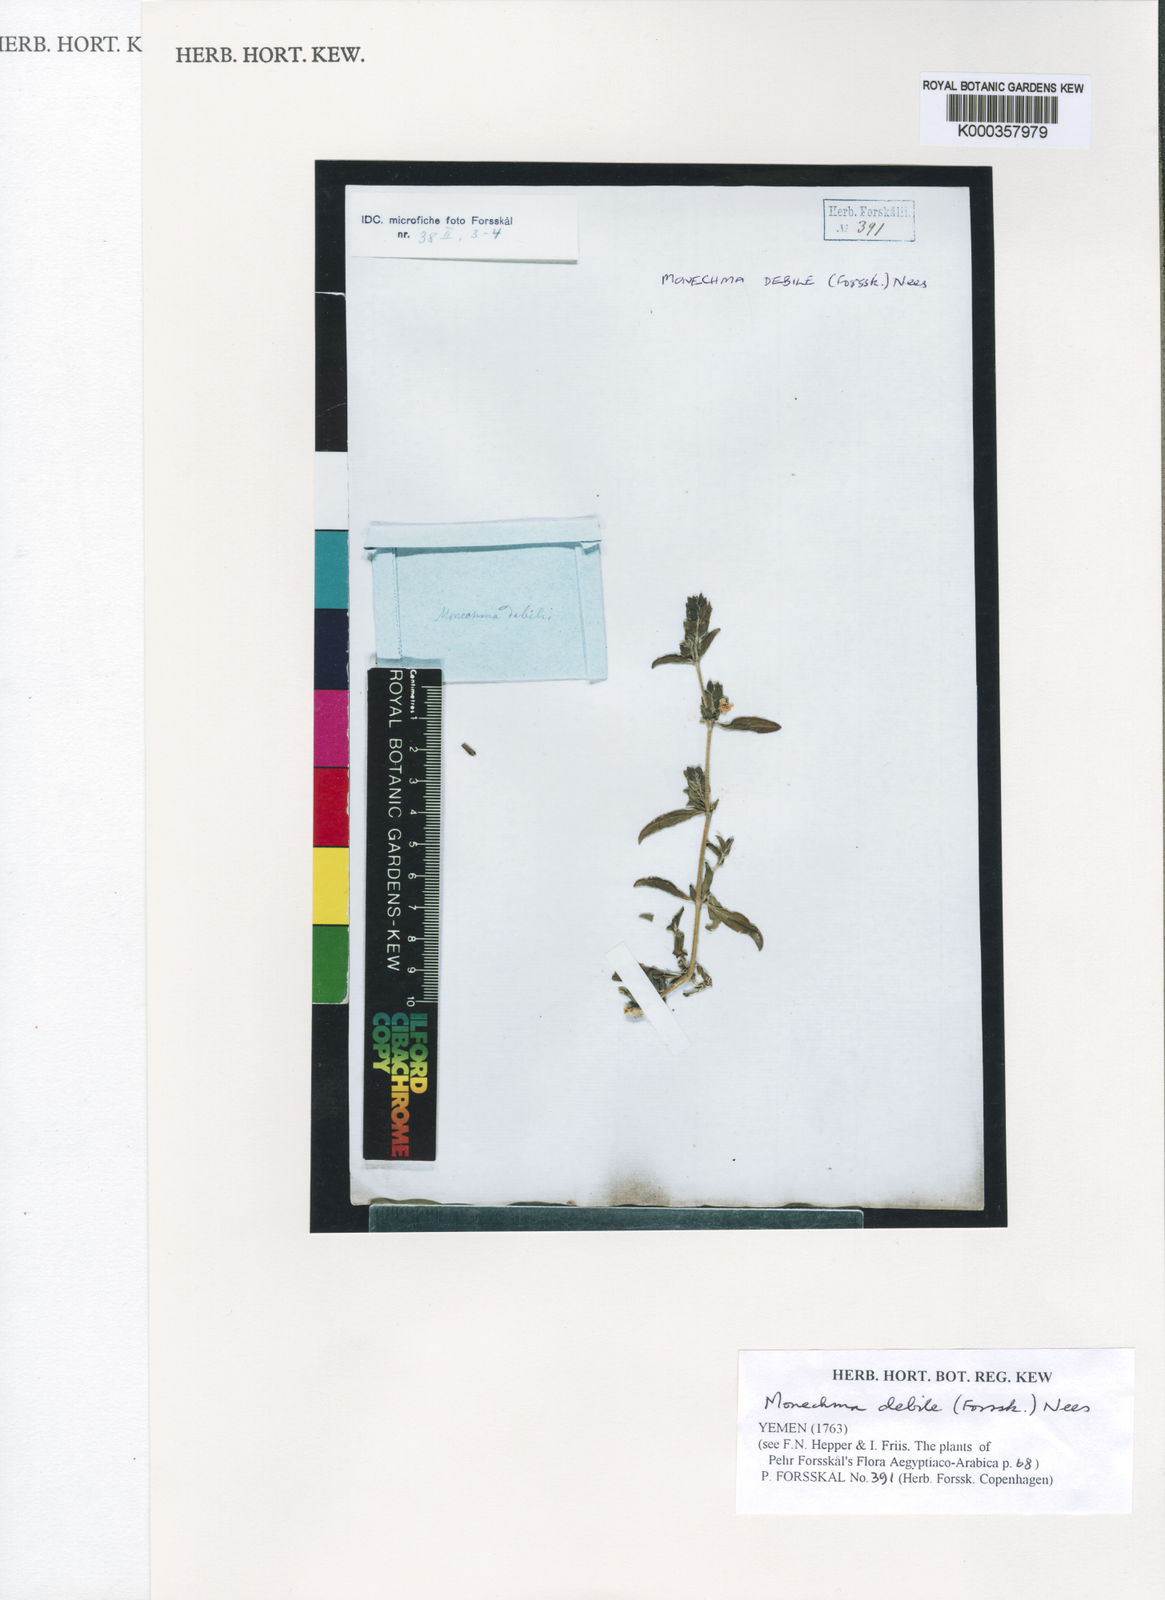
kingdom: Plantae
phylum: Tracheophyta
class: Magnoliopsida
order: Lamiales
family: Acanthaceae
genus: Monechma
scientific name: Monechma debile
